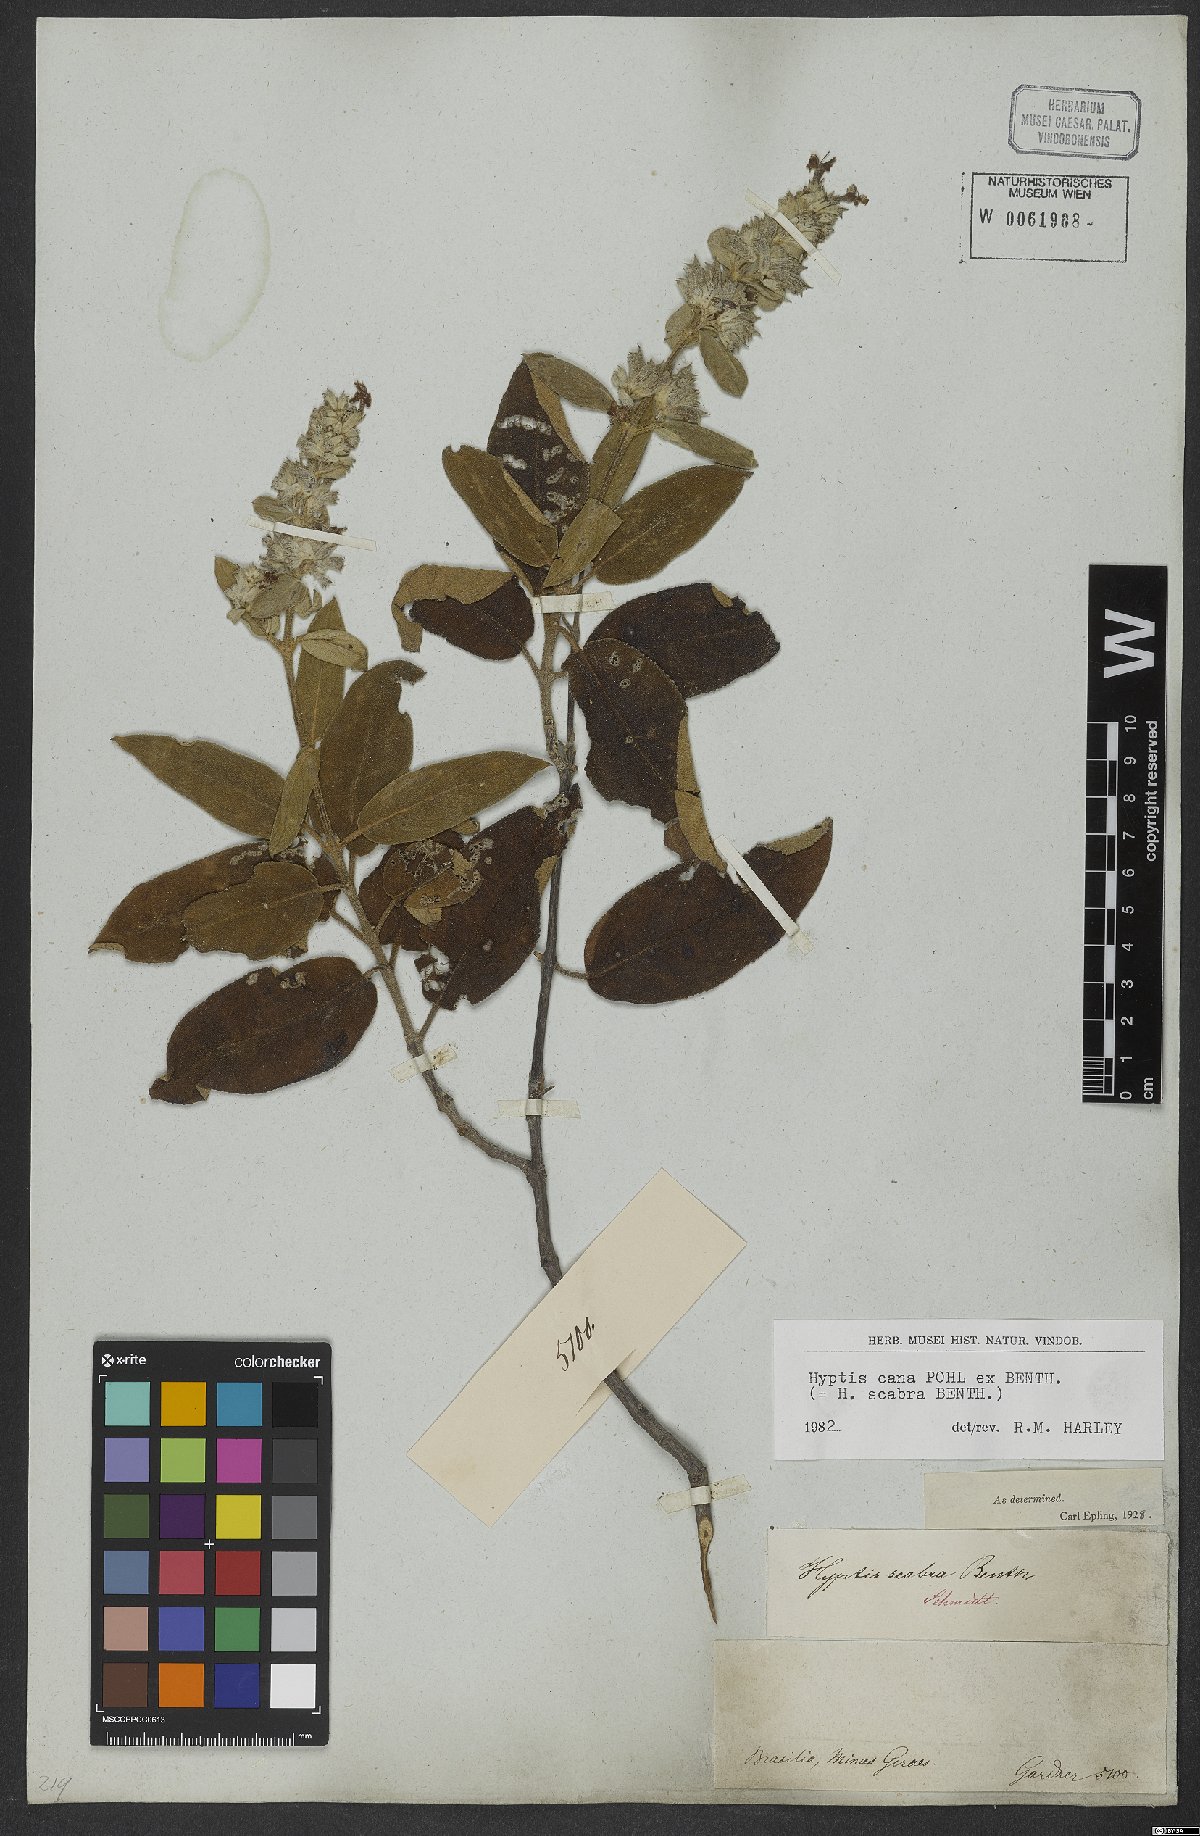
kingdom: Plantae
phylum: Tracheophyta
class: Magnoliopsida
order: Lamiales
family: Lamiaceae
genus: Hyptidendron
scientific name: Hyptidendron canum
